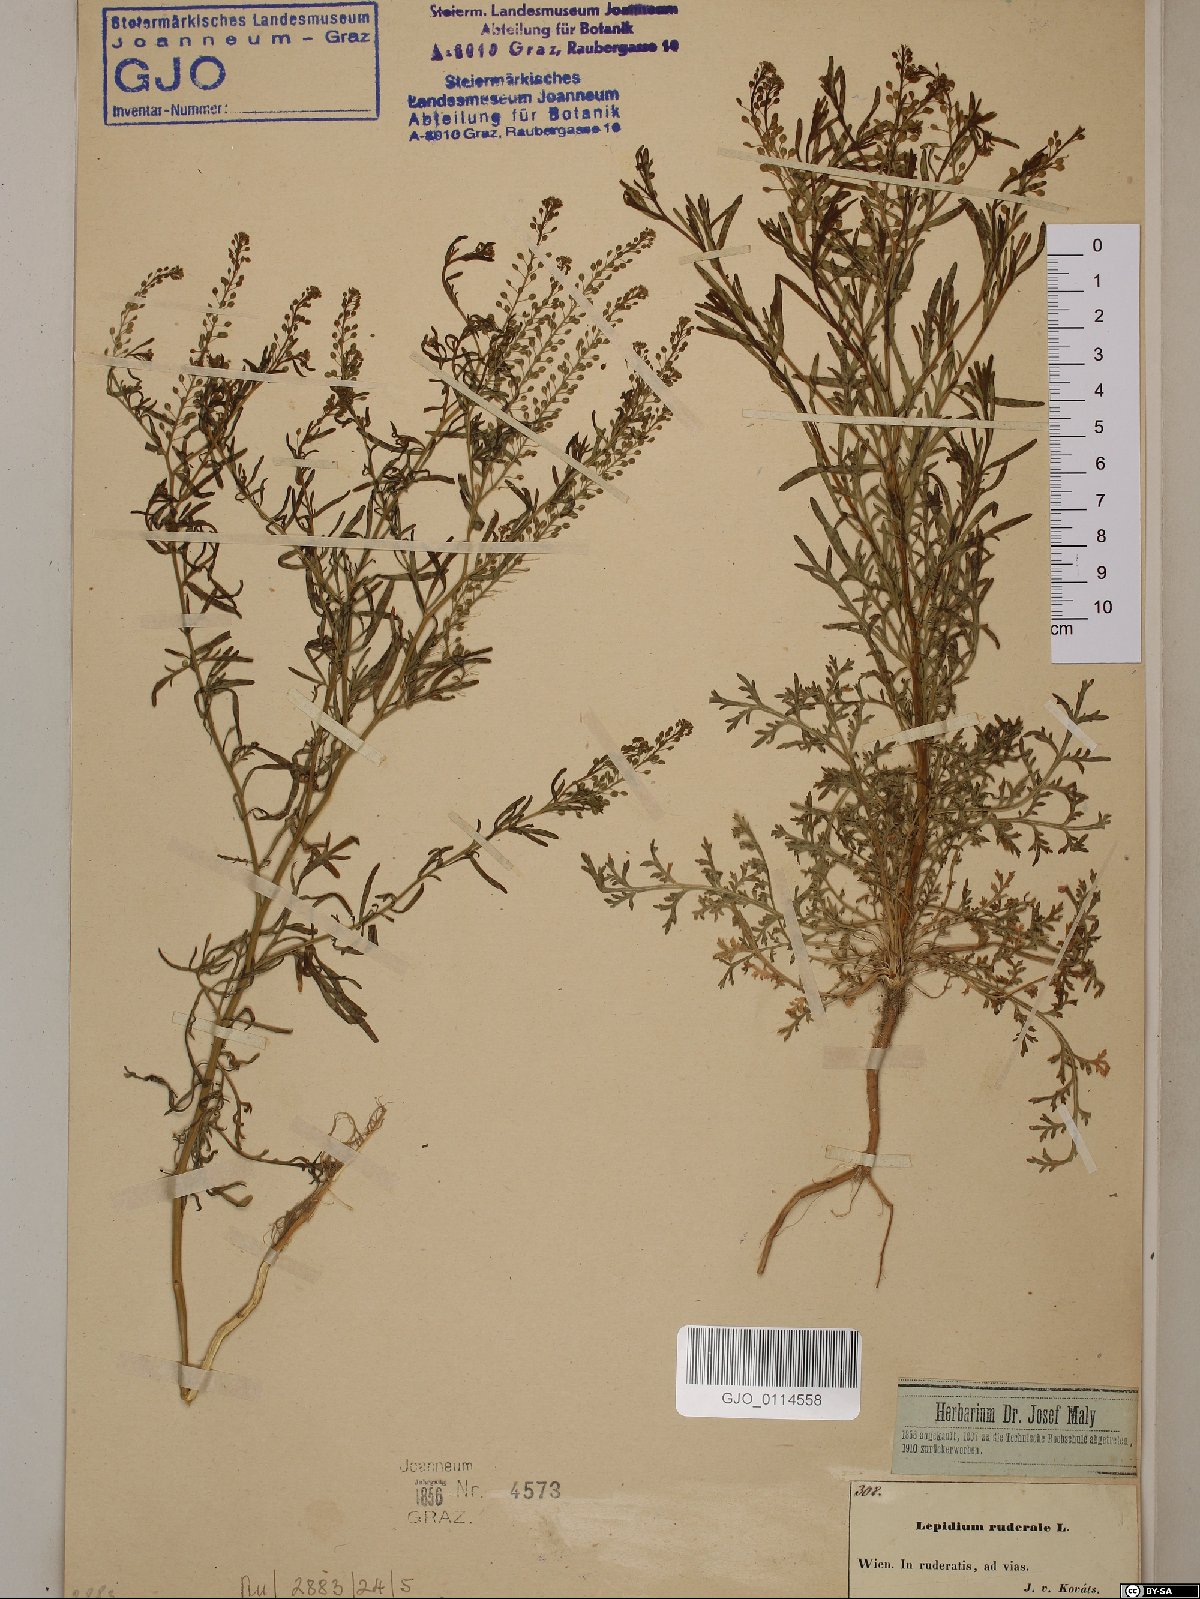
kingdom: Plantae
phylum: Tracheophyta
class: Magnoliopsida
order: Brassicales
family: Brassicaceae
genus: Lepidium
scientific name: Lepidium ruderale
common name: Narrow-leaved pepperwort
